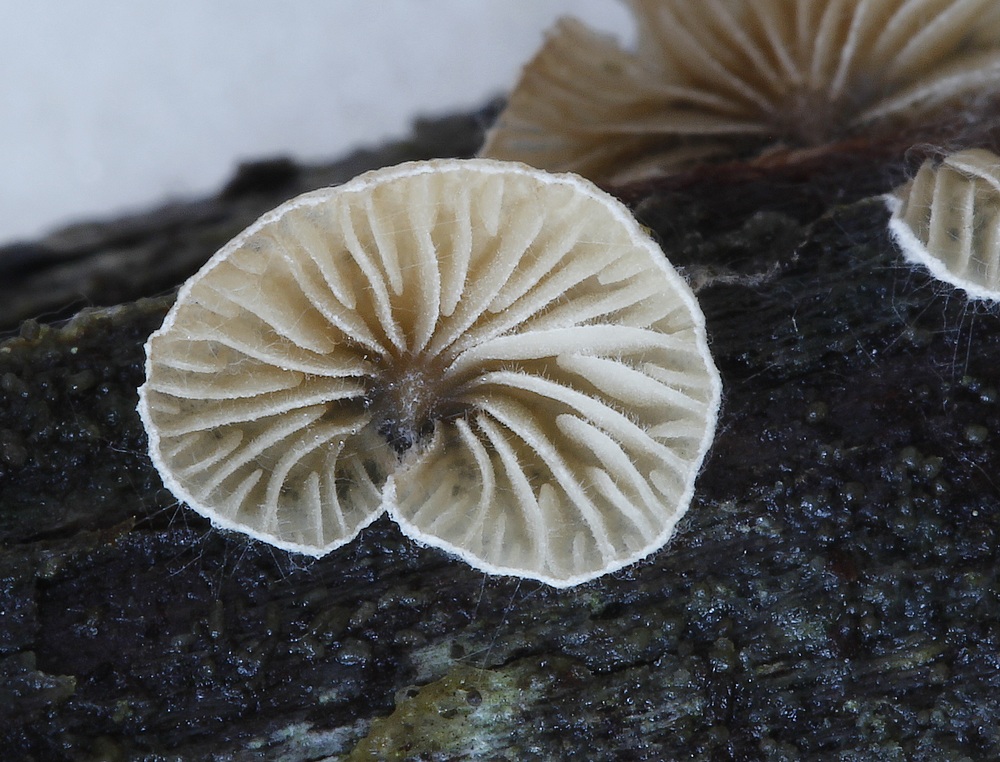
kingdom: Fungi
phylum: Basidiomycota
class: Agaricomycetes
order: Agaricales
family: Entolomataceae
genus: Clitopilus
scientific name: Clitopilus hobsonii
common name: Miller's oysterling
